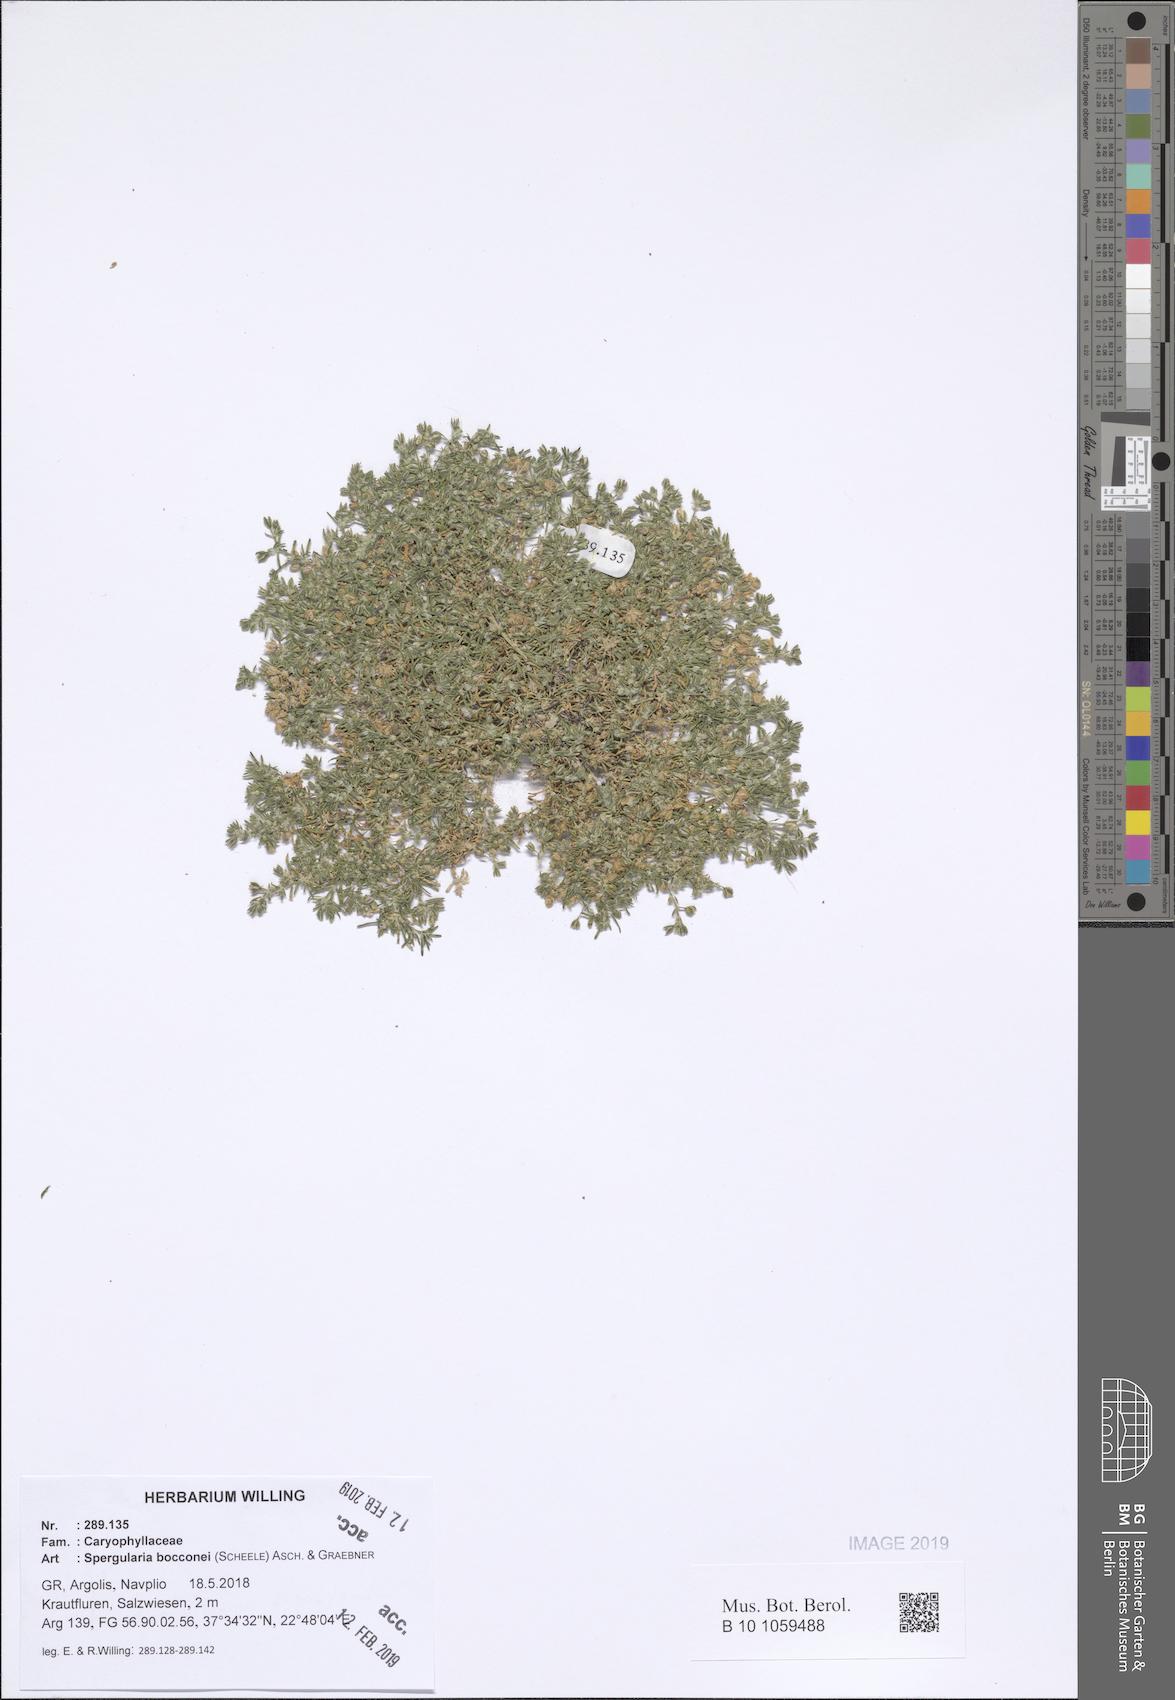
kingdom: Plantae
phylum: Tracheophyta
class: Magnoliopsida
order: Caryophyllales
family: Caryophyllaceae
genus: Spergularia
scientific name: Spergularia bocconei
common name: Greek sea-spurrey
